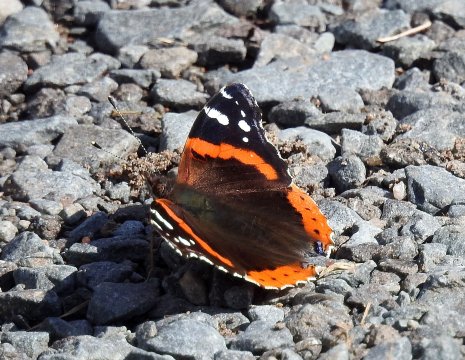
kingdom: Animalia
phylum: Arthropoda
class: Insecta
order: Lepidoptera
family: Nymphalidae
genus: Vanessa
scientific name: Vanessa atalanta
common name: Red Admiral
